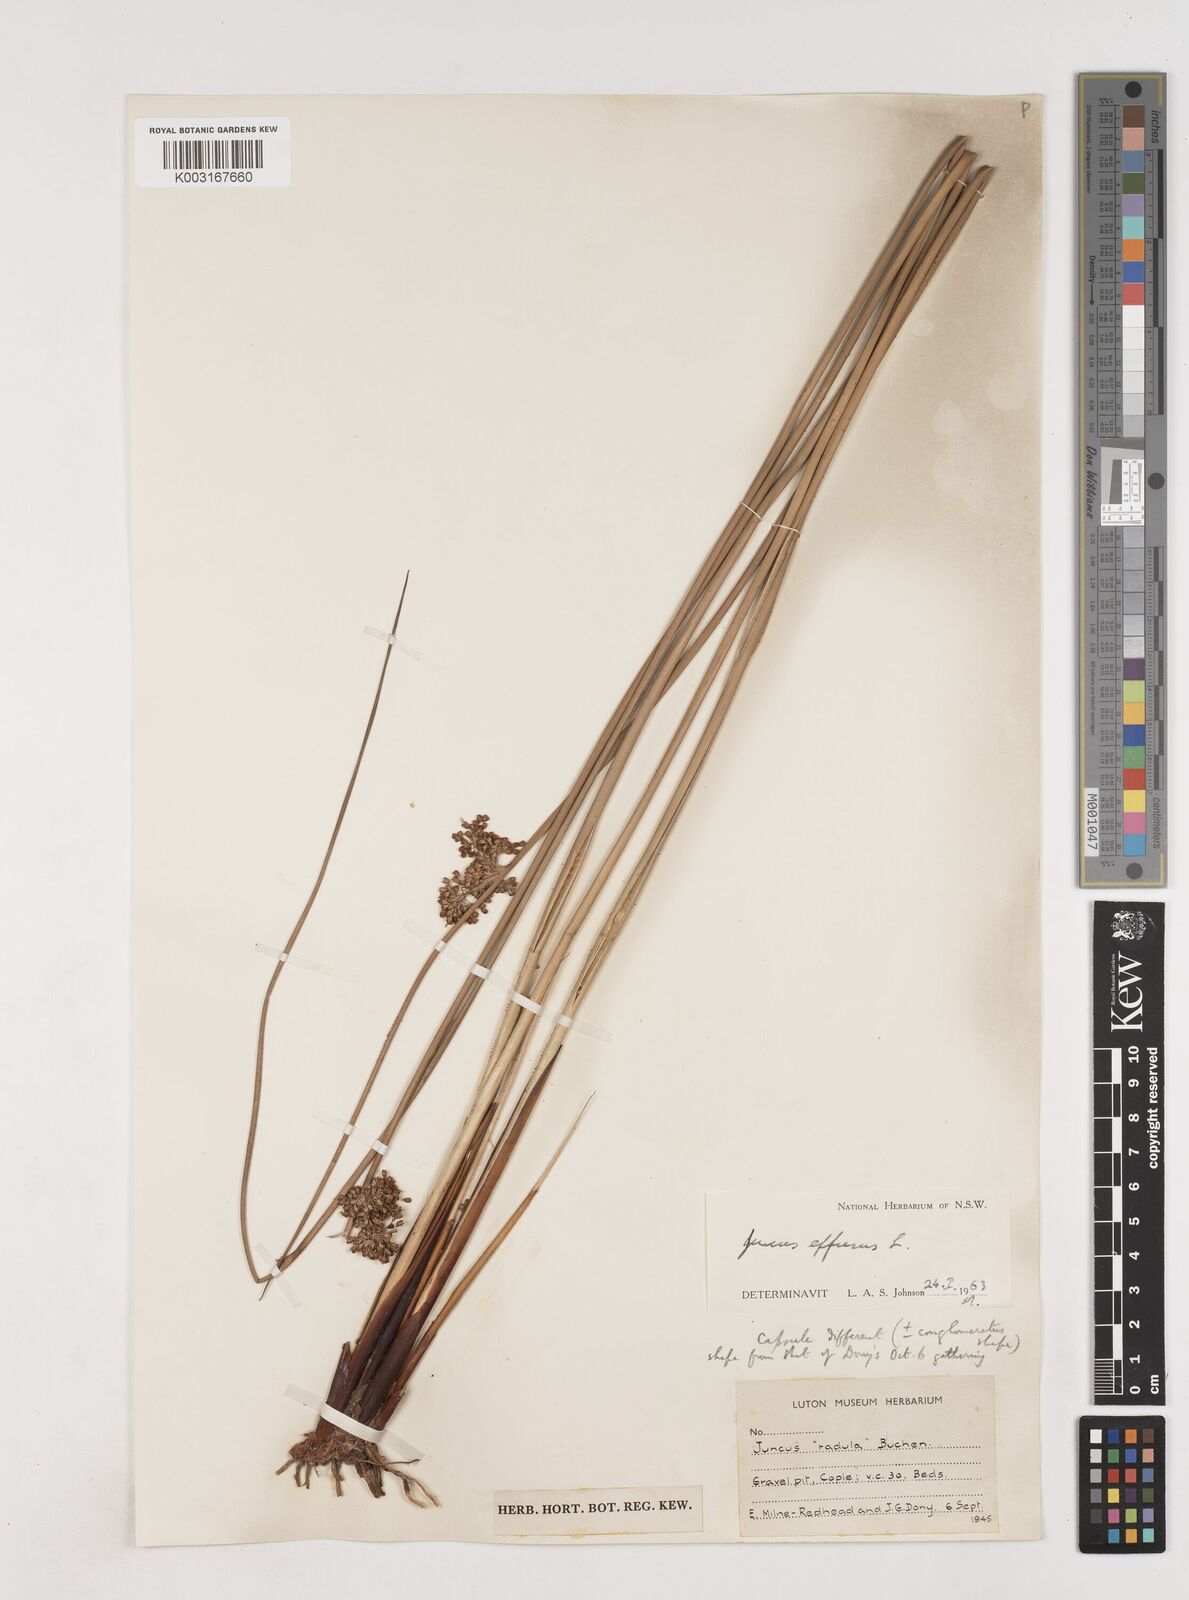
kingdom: Plantae
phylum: Tracheophyta
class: Liliopsida
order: Poales
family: Juncaceae
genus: Juncus
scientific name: Juncus effusus
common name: Soft rush
